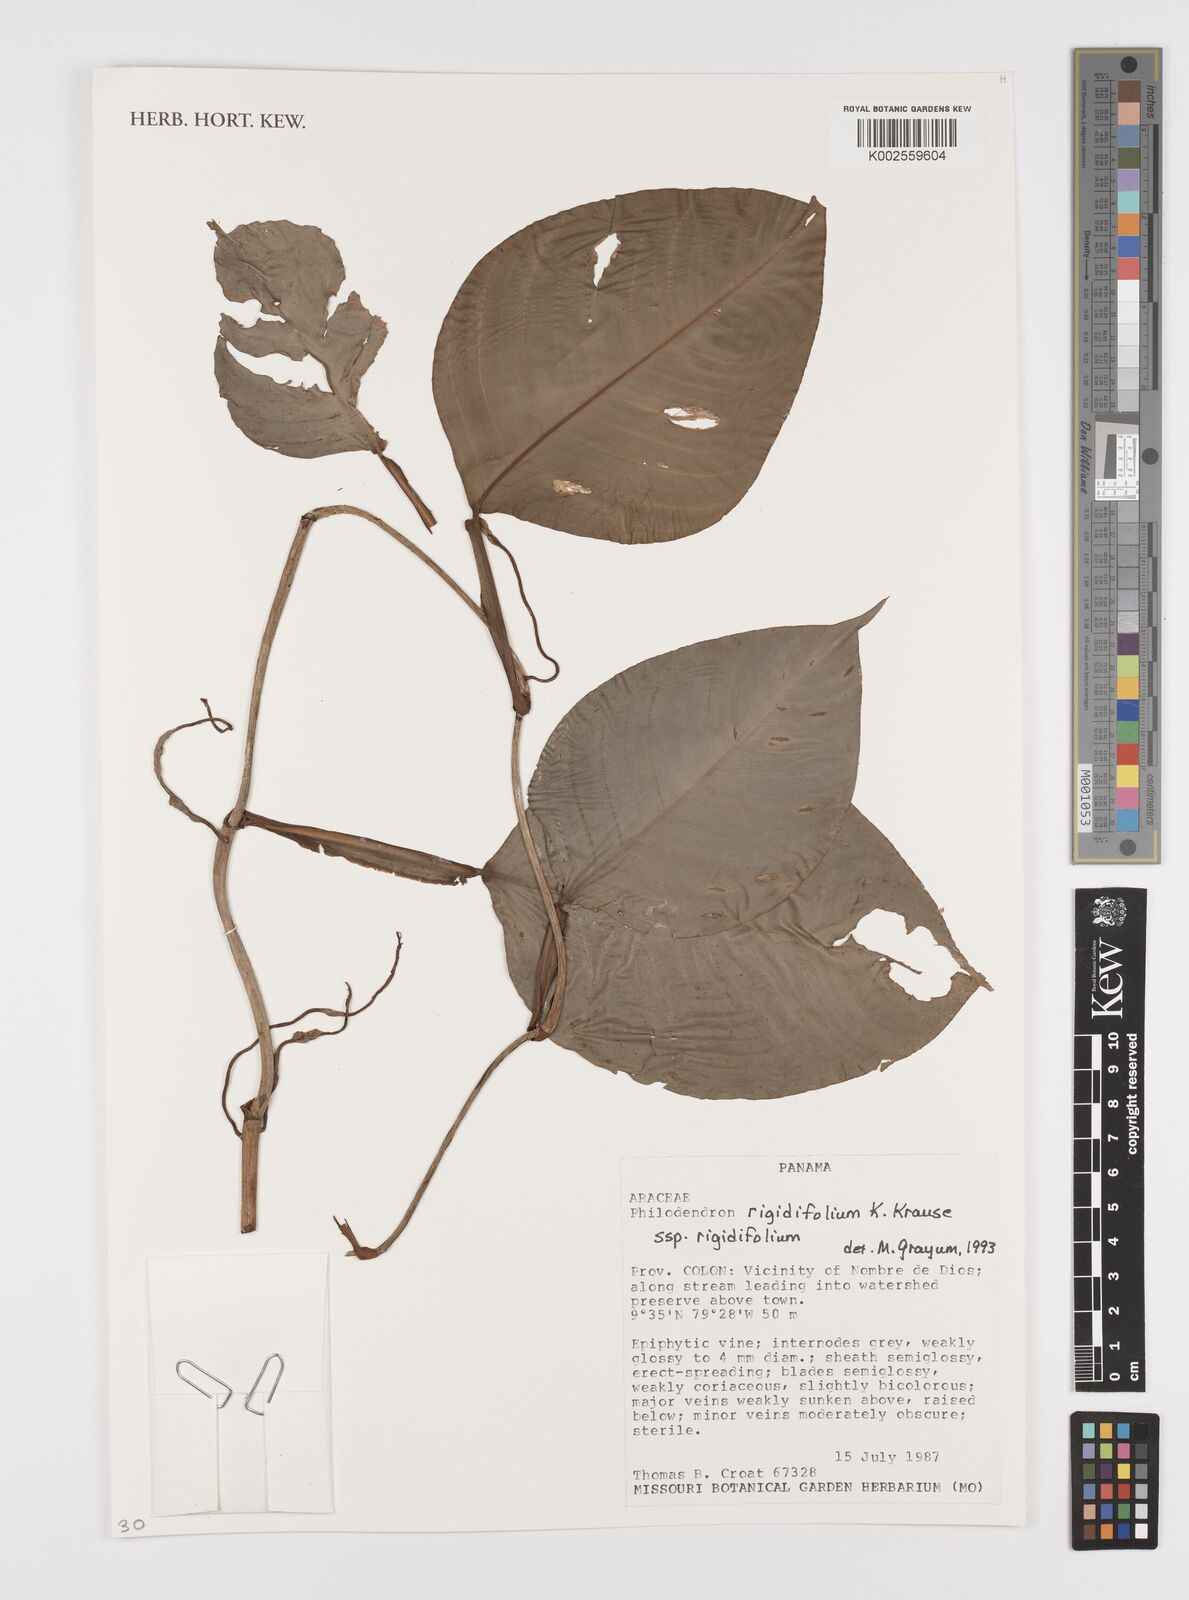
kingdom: Plantae
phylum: Tracheophyta
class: Liliopsida
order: Alismatales
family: Araceae
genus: Philodendron
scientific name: Philodendron rigidifolium
